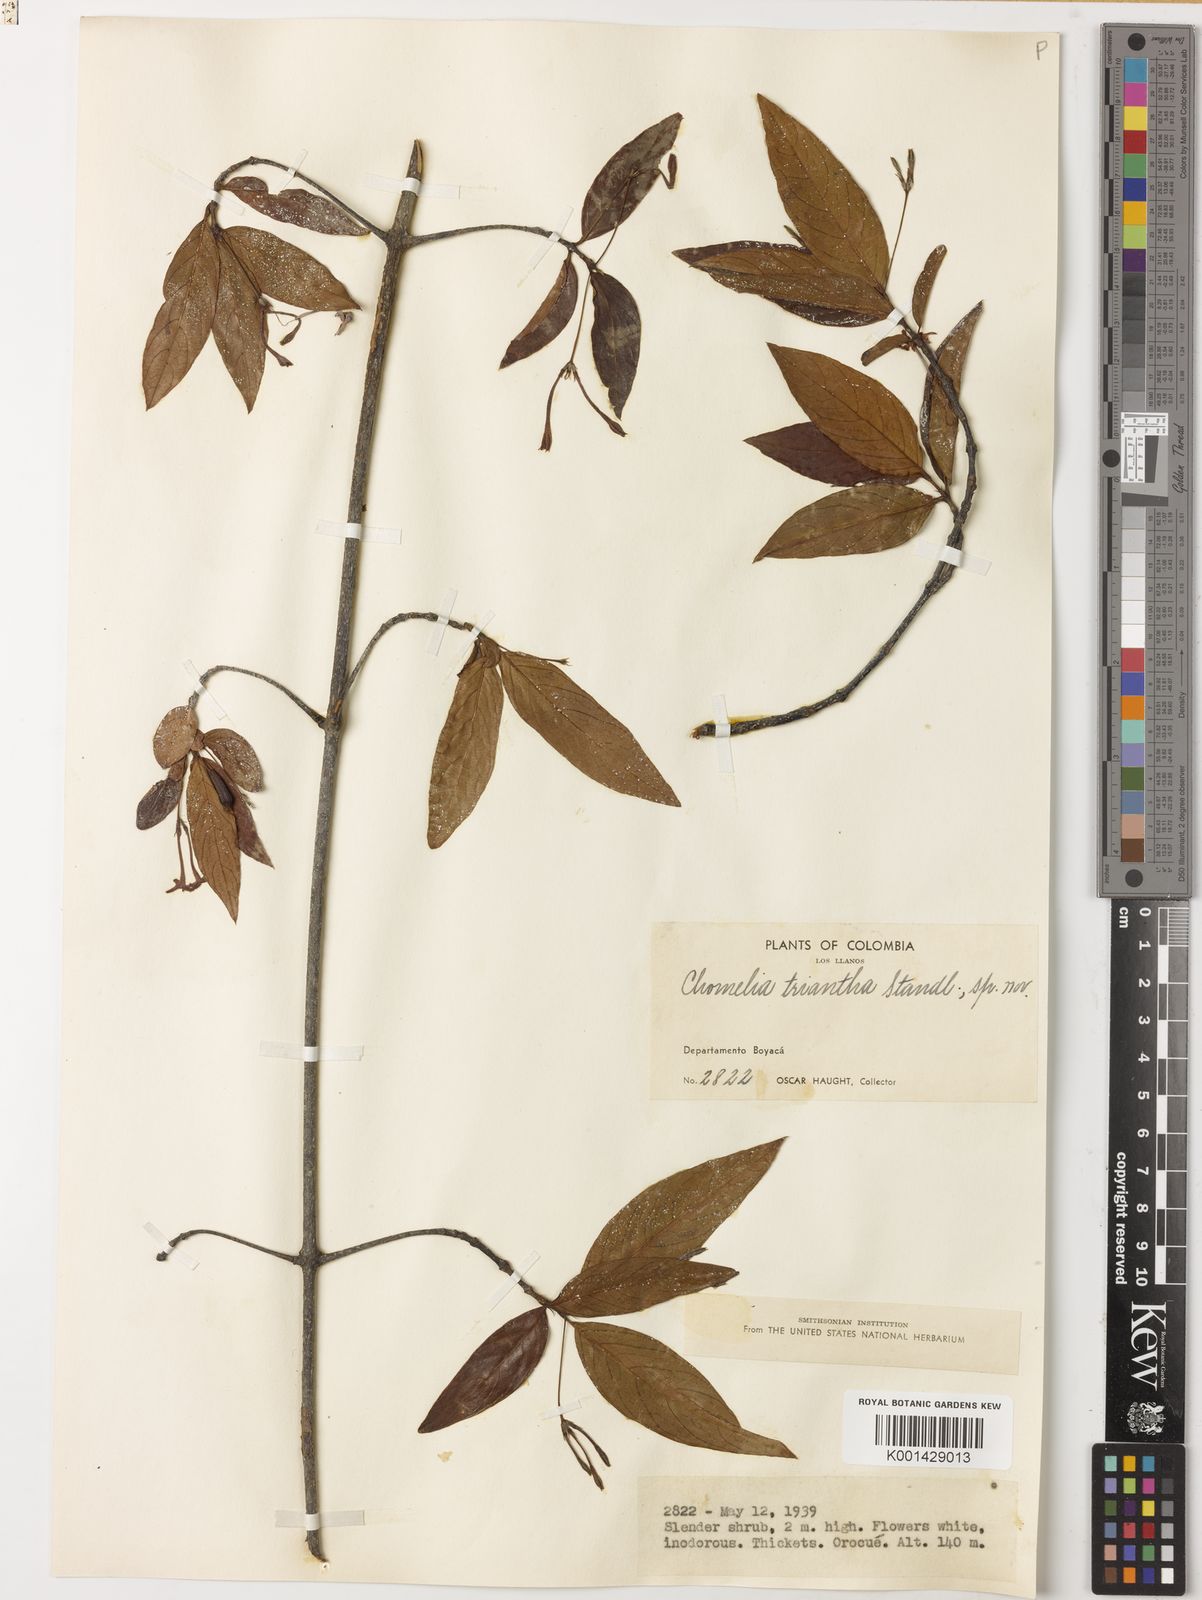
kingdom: Plantae
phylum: Tracheophyta
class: Magnoliopsida
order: Gentianales
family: Rubiaceae
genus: Chomelia
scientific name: Chomelia triantha
